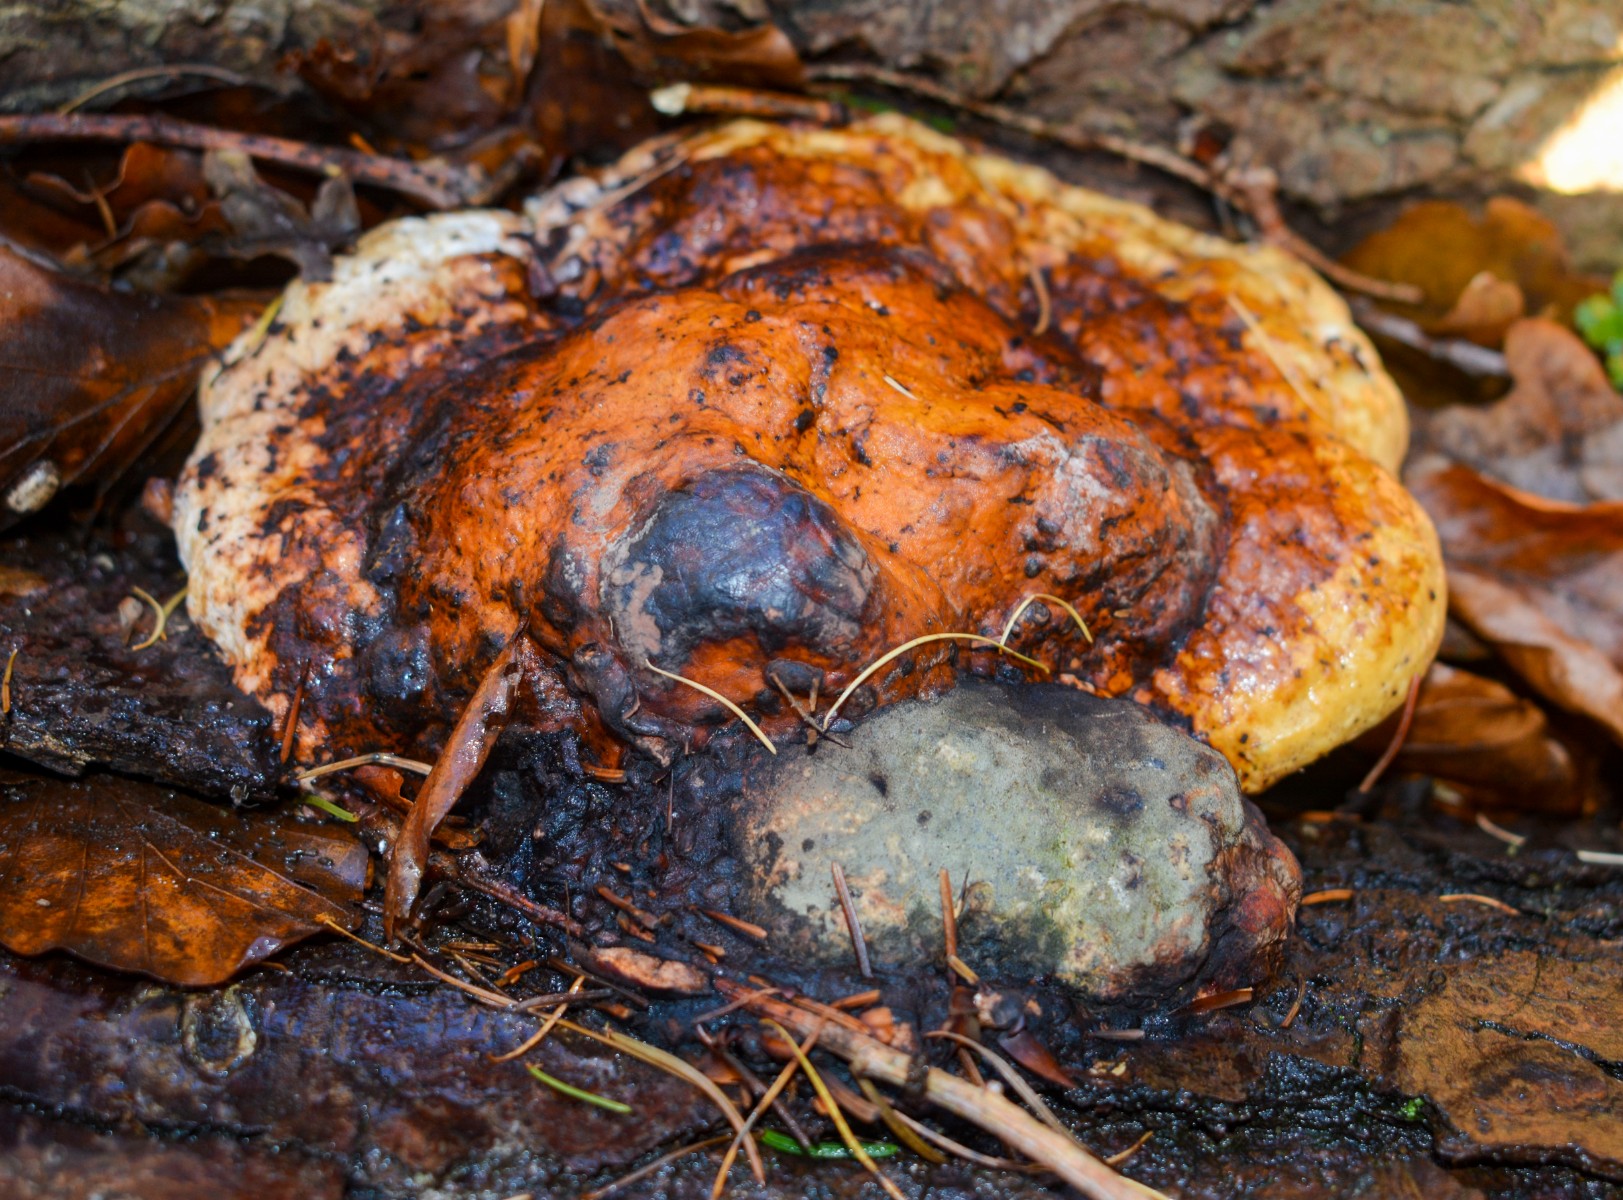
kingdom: Fungi
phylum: Basidiomycota
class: Agaricomycetes
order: Polyporales
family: Fomitopsidaceae
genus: Fomitopsis
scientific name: Fomitopsis pinicola
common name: randbæltet hovporesvamp
